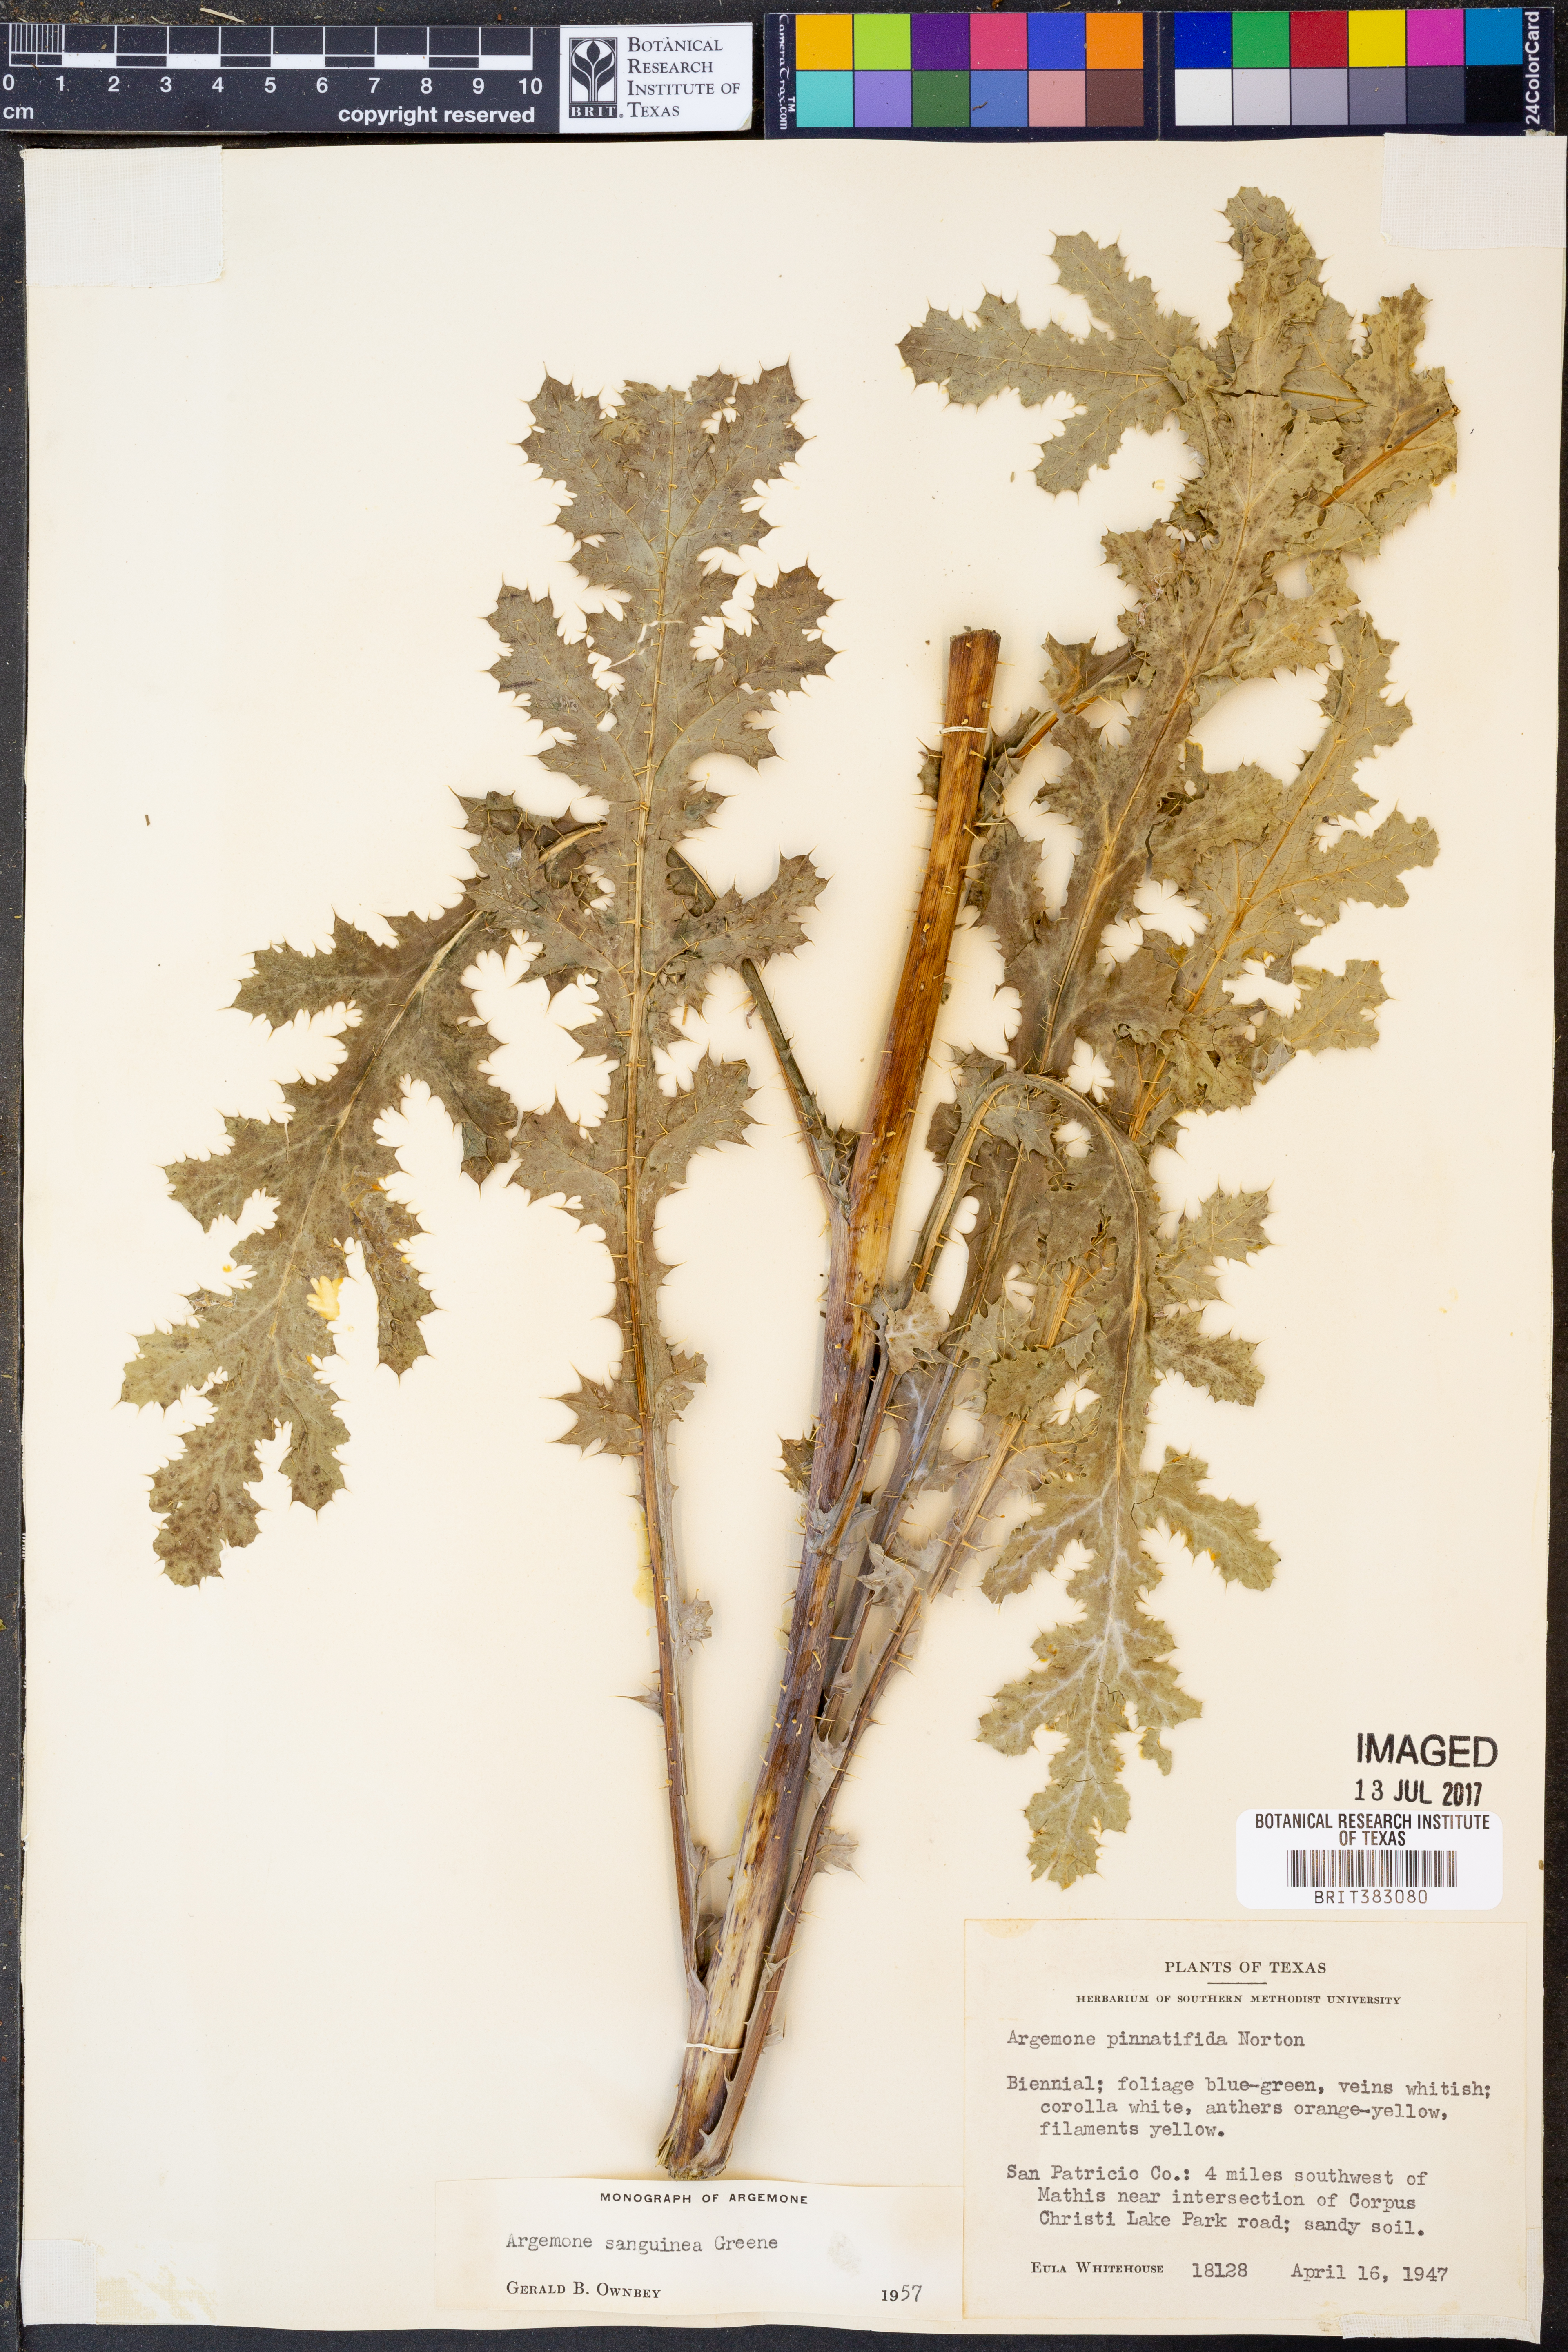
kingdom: Plantae
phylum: Tracheophyta
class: Magnoliopsida
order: Ranunculales
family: Papaveraceae
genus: Argemone
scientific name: Argemone sanguinea
